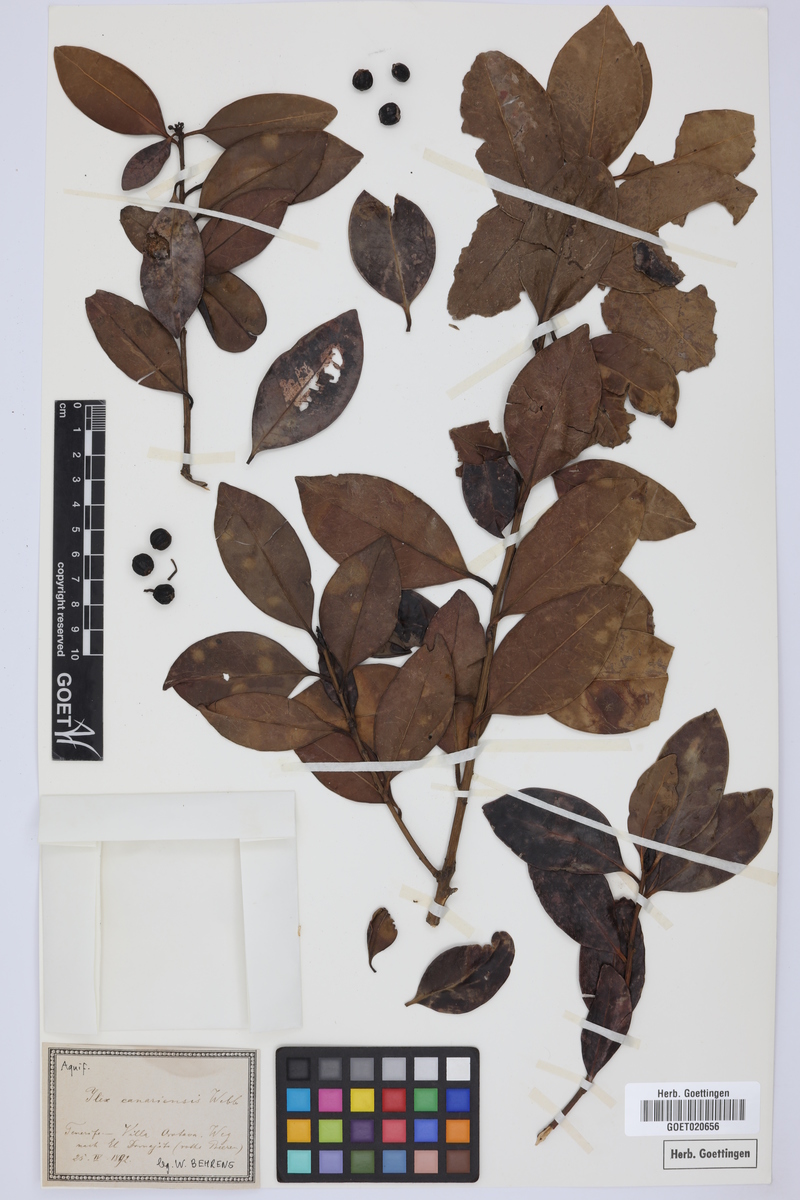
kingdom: Plantae
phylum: Tracheophyta
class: Magnoliopsida
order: Aquifoliales
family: Aquifoliaceae
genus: Ilex
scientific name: Ilex canariensis
